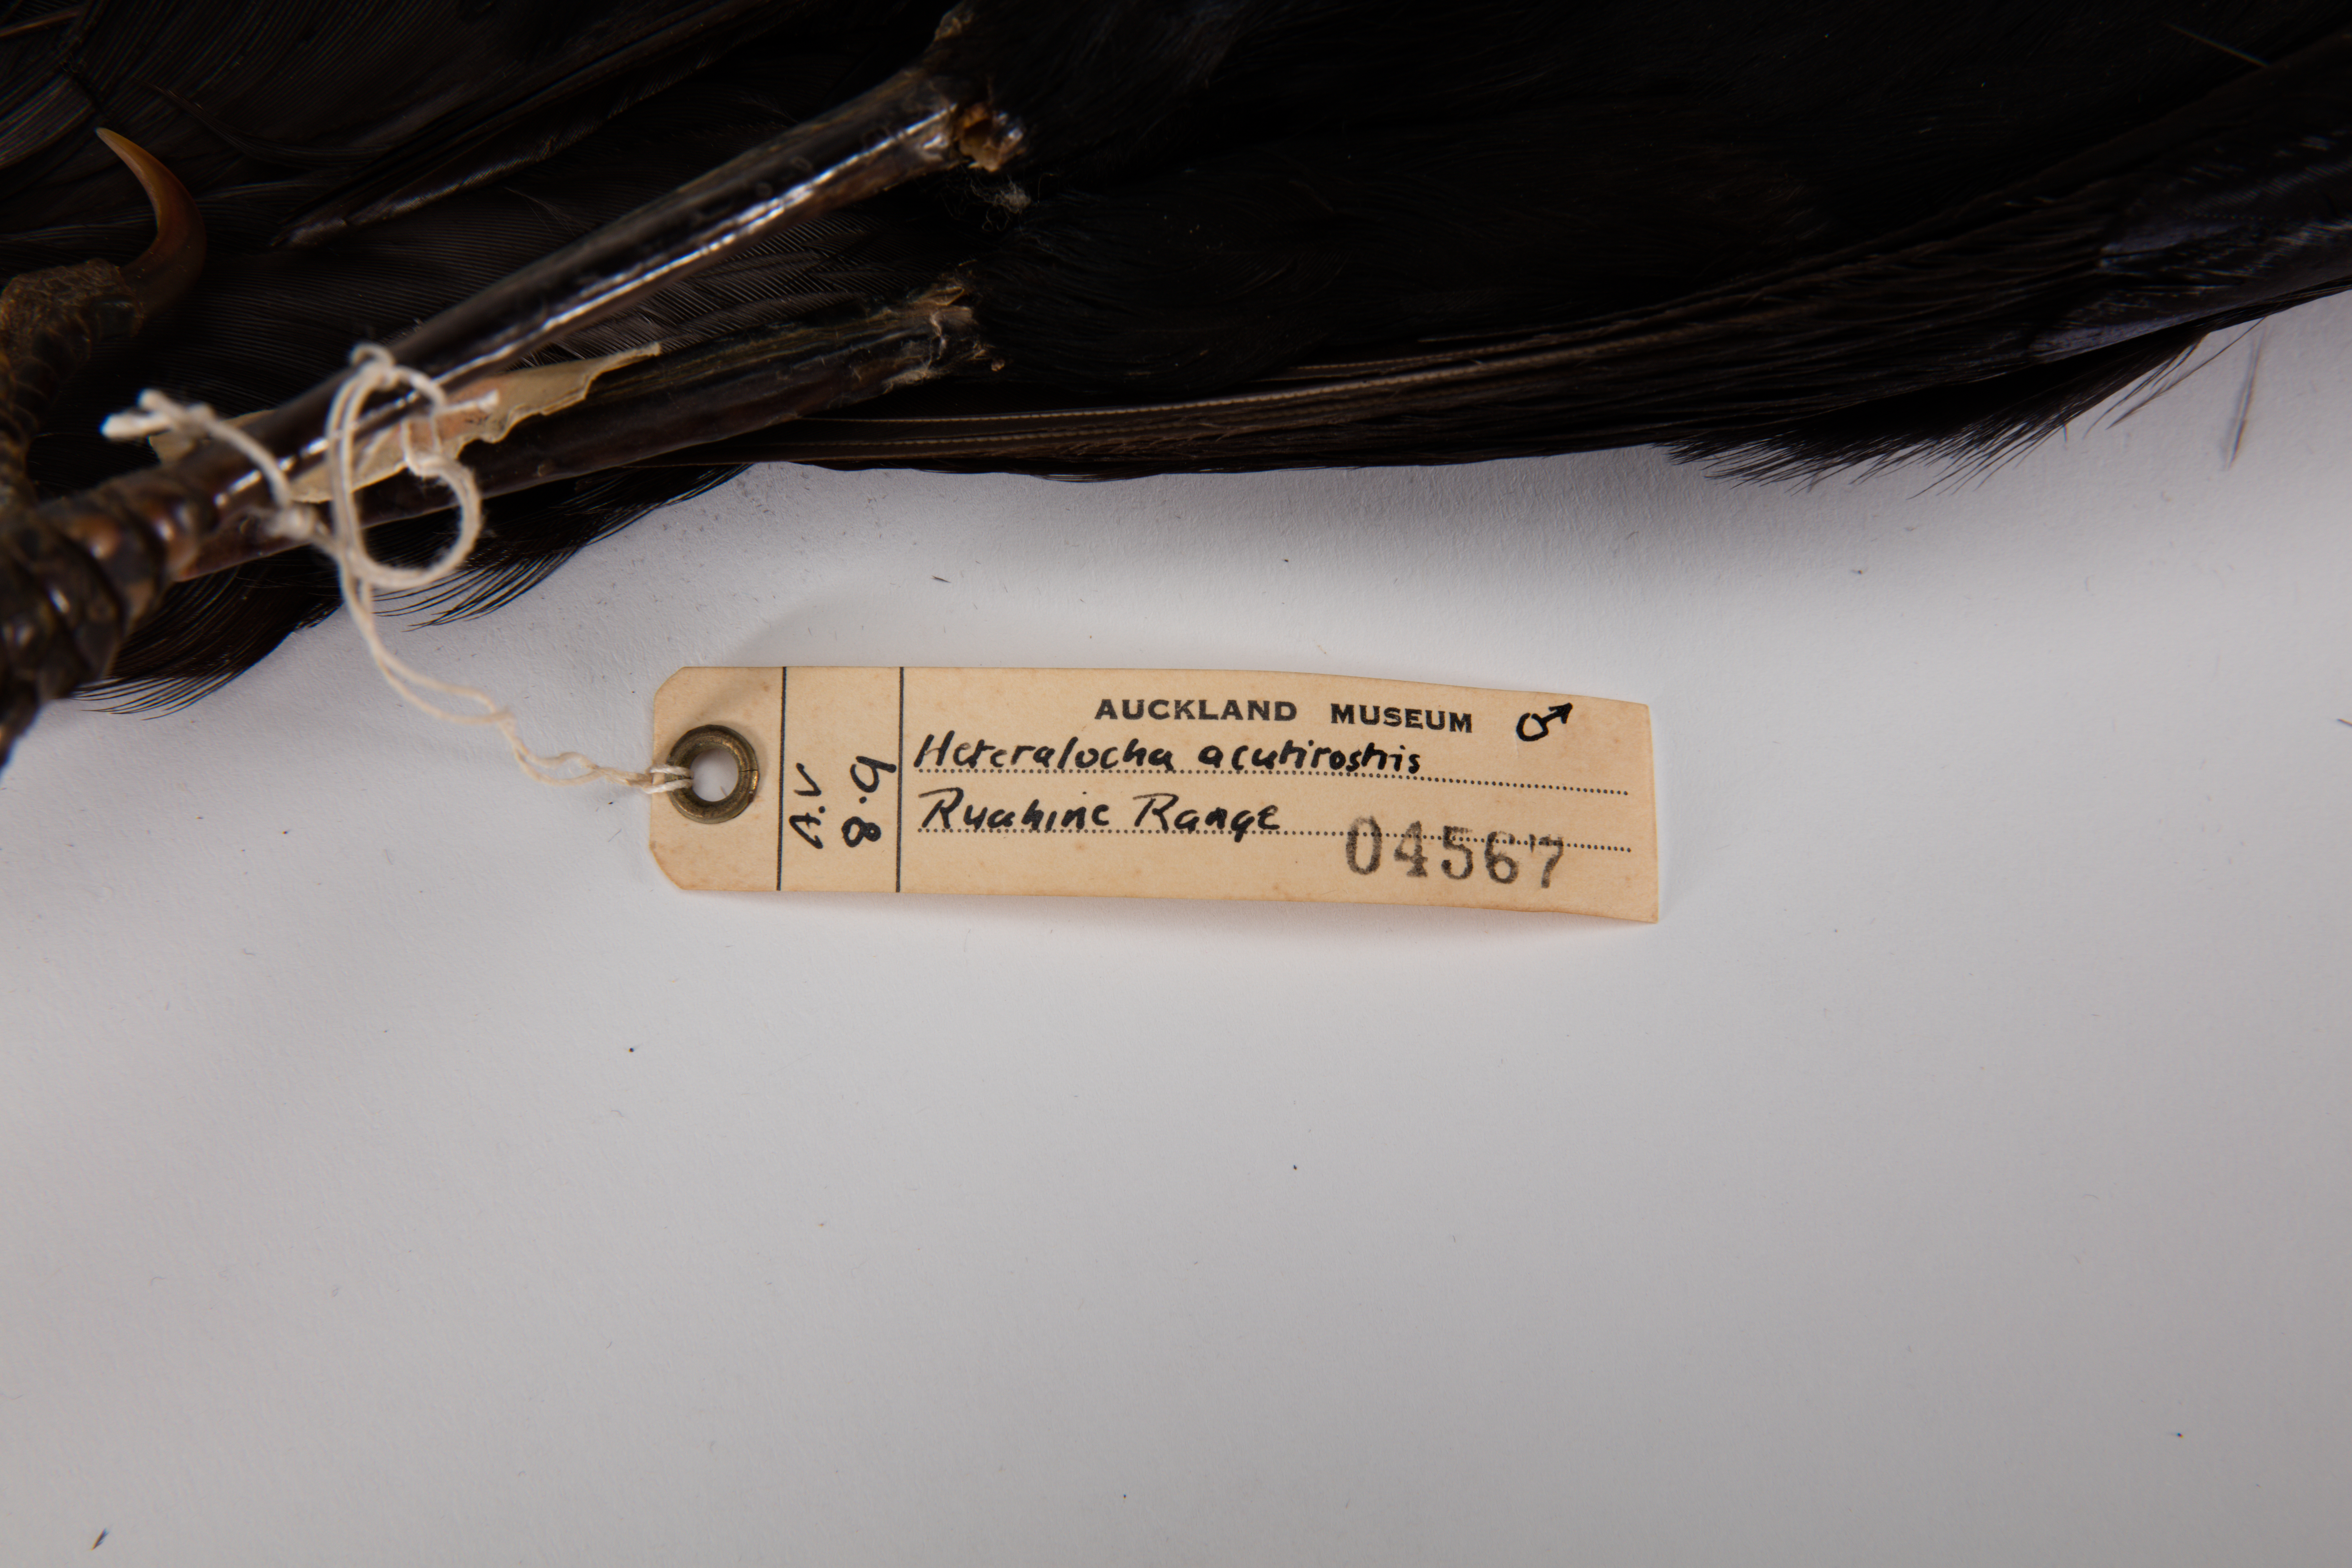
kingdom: Animalia
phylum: Chordata
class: Aves
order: Passeriformes
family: Callaeatidae
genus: Heteralocha
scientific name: Heteralocha acutirostris
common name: Huia
